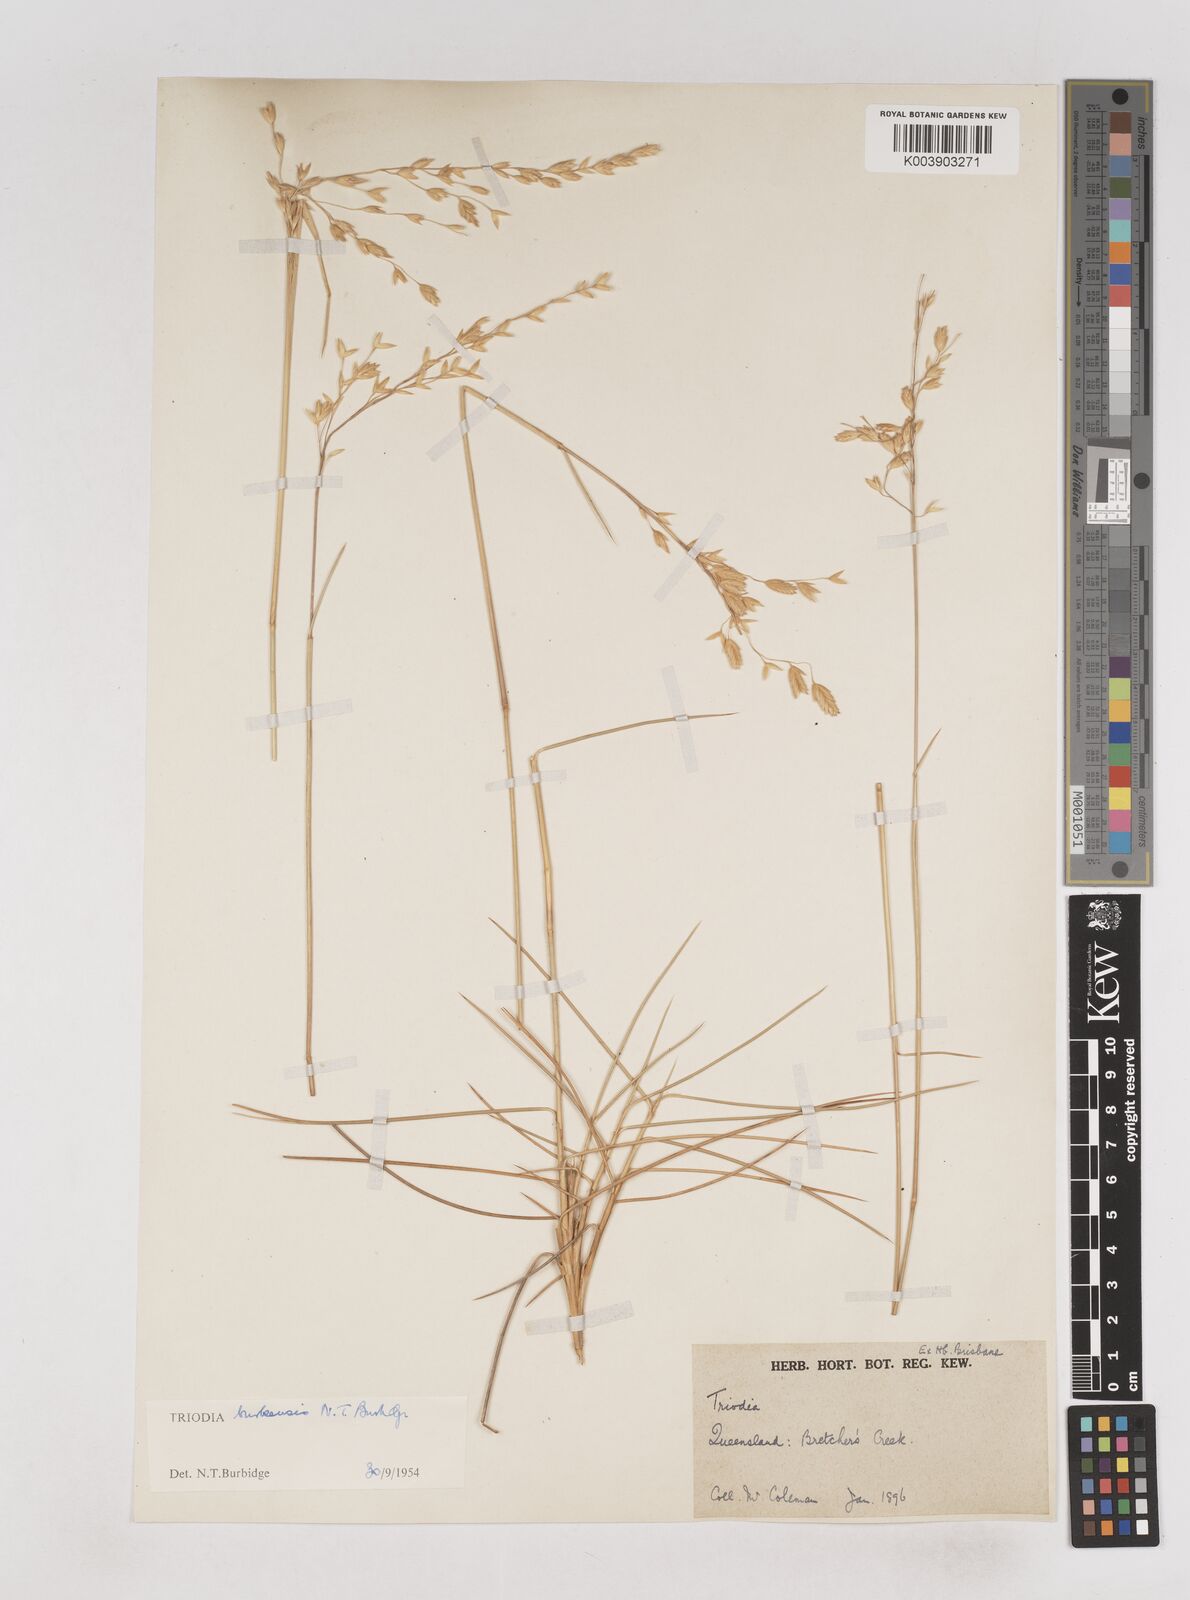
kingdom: Plantae
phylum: Tracheophyta
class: Liliopsida
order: Poales
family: Poaceae
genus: Triodia
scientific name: Triodia brizoides
